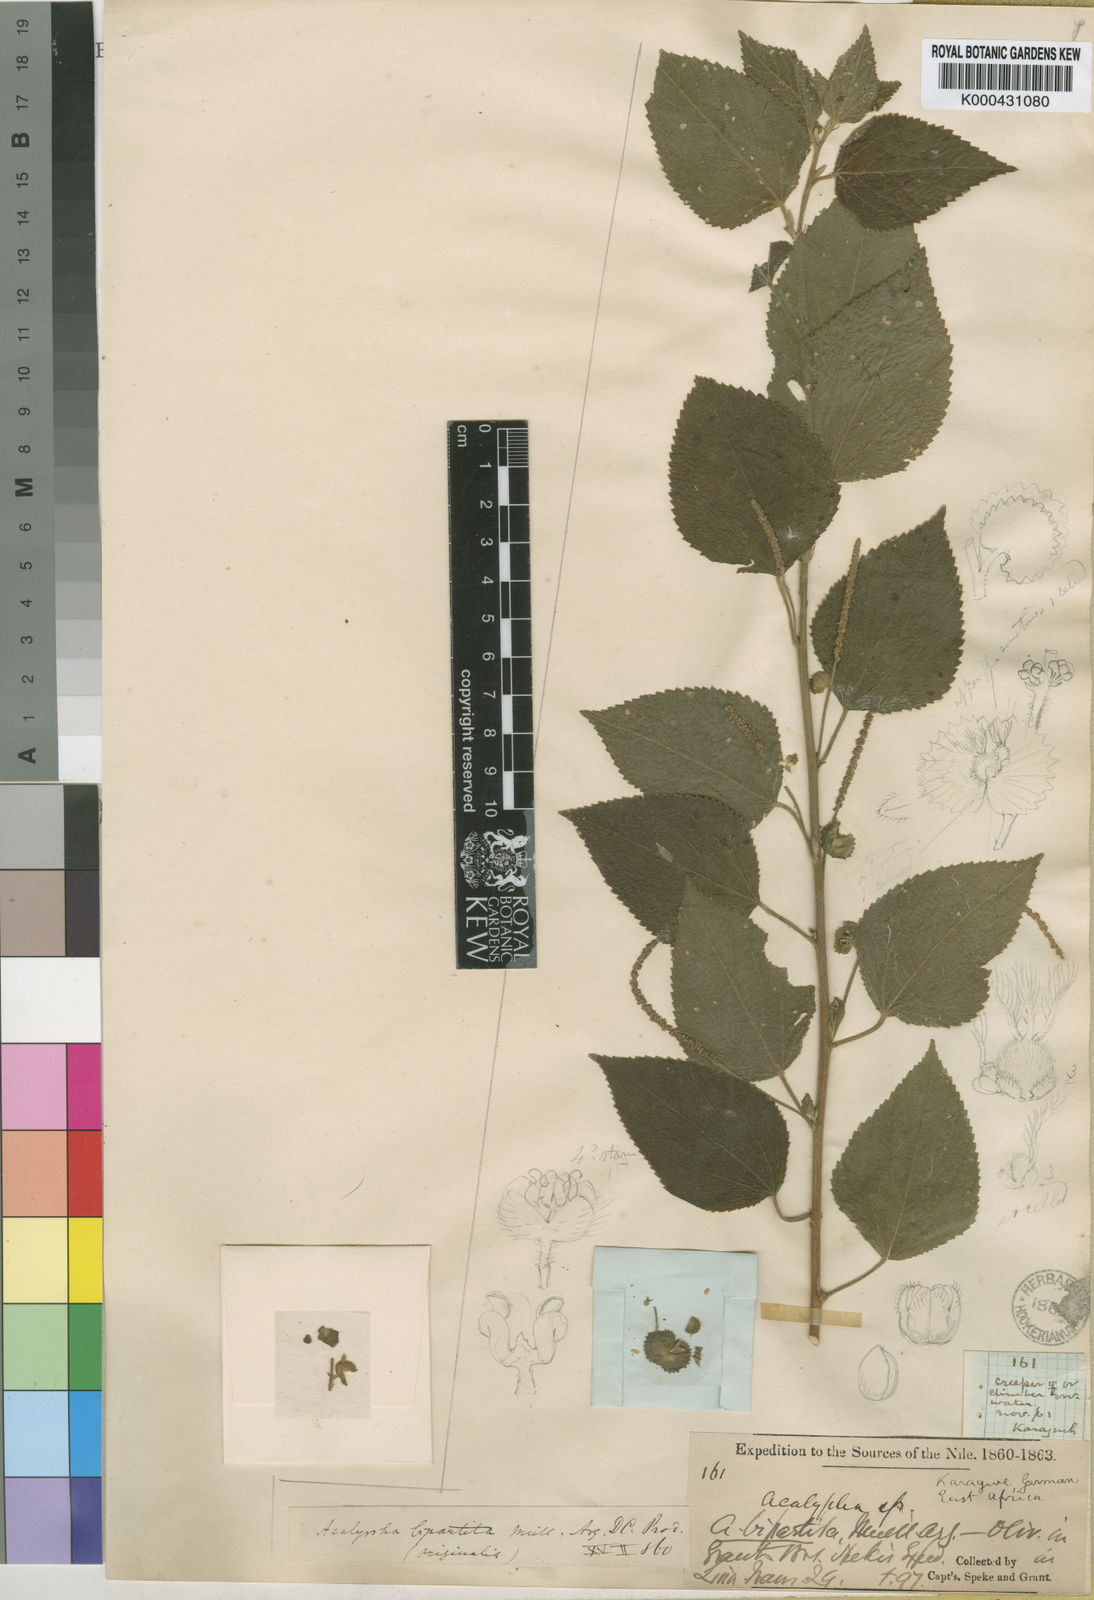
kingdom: Plantae
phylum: Tracheophyta
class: Magnoliopsida
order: Malpighiales
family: Euphorbiaceae
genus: Acalypha
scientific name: Acalypha
